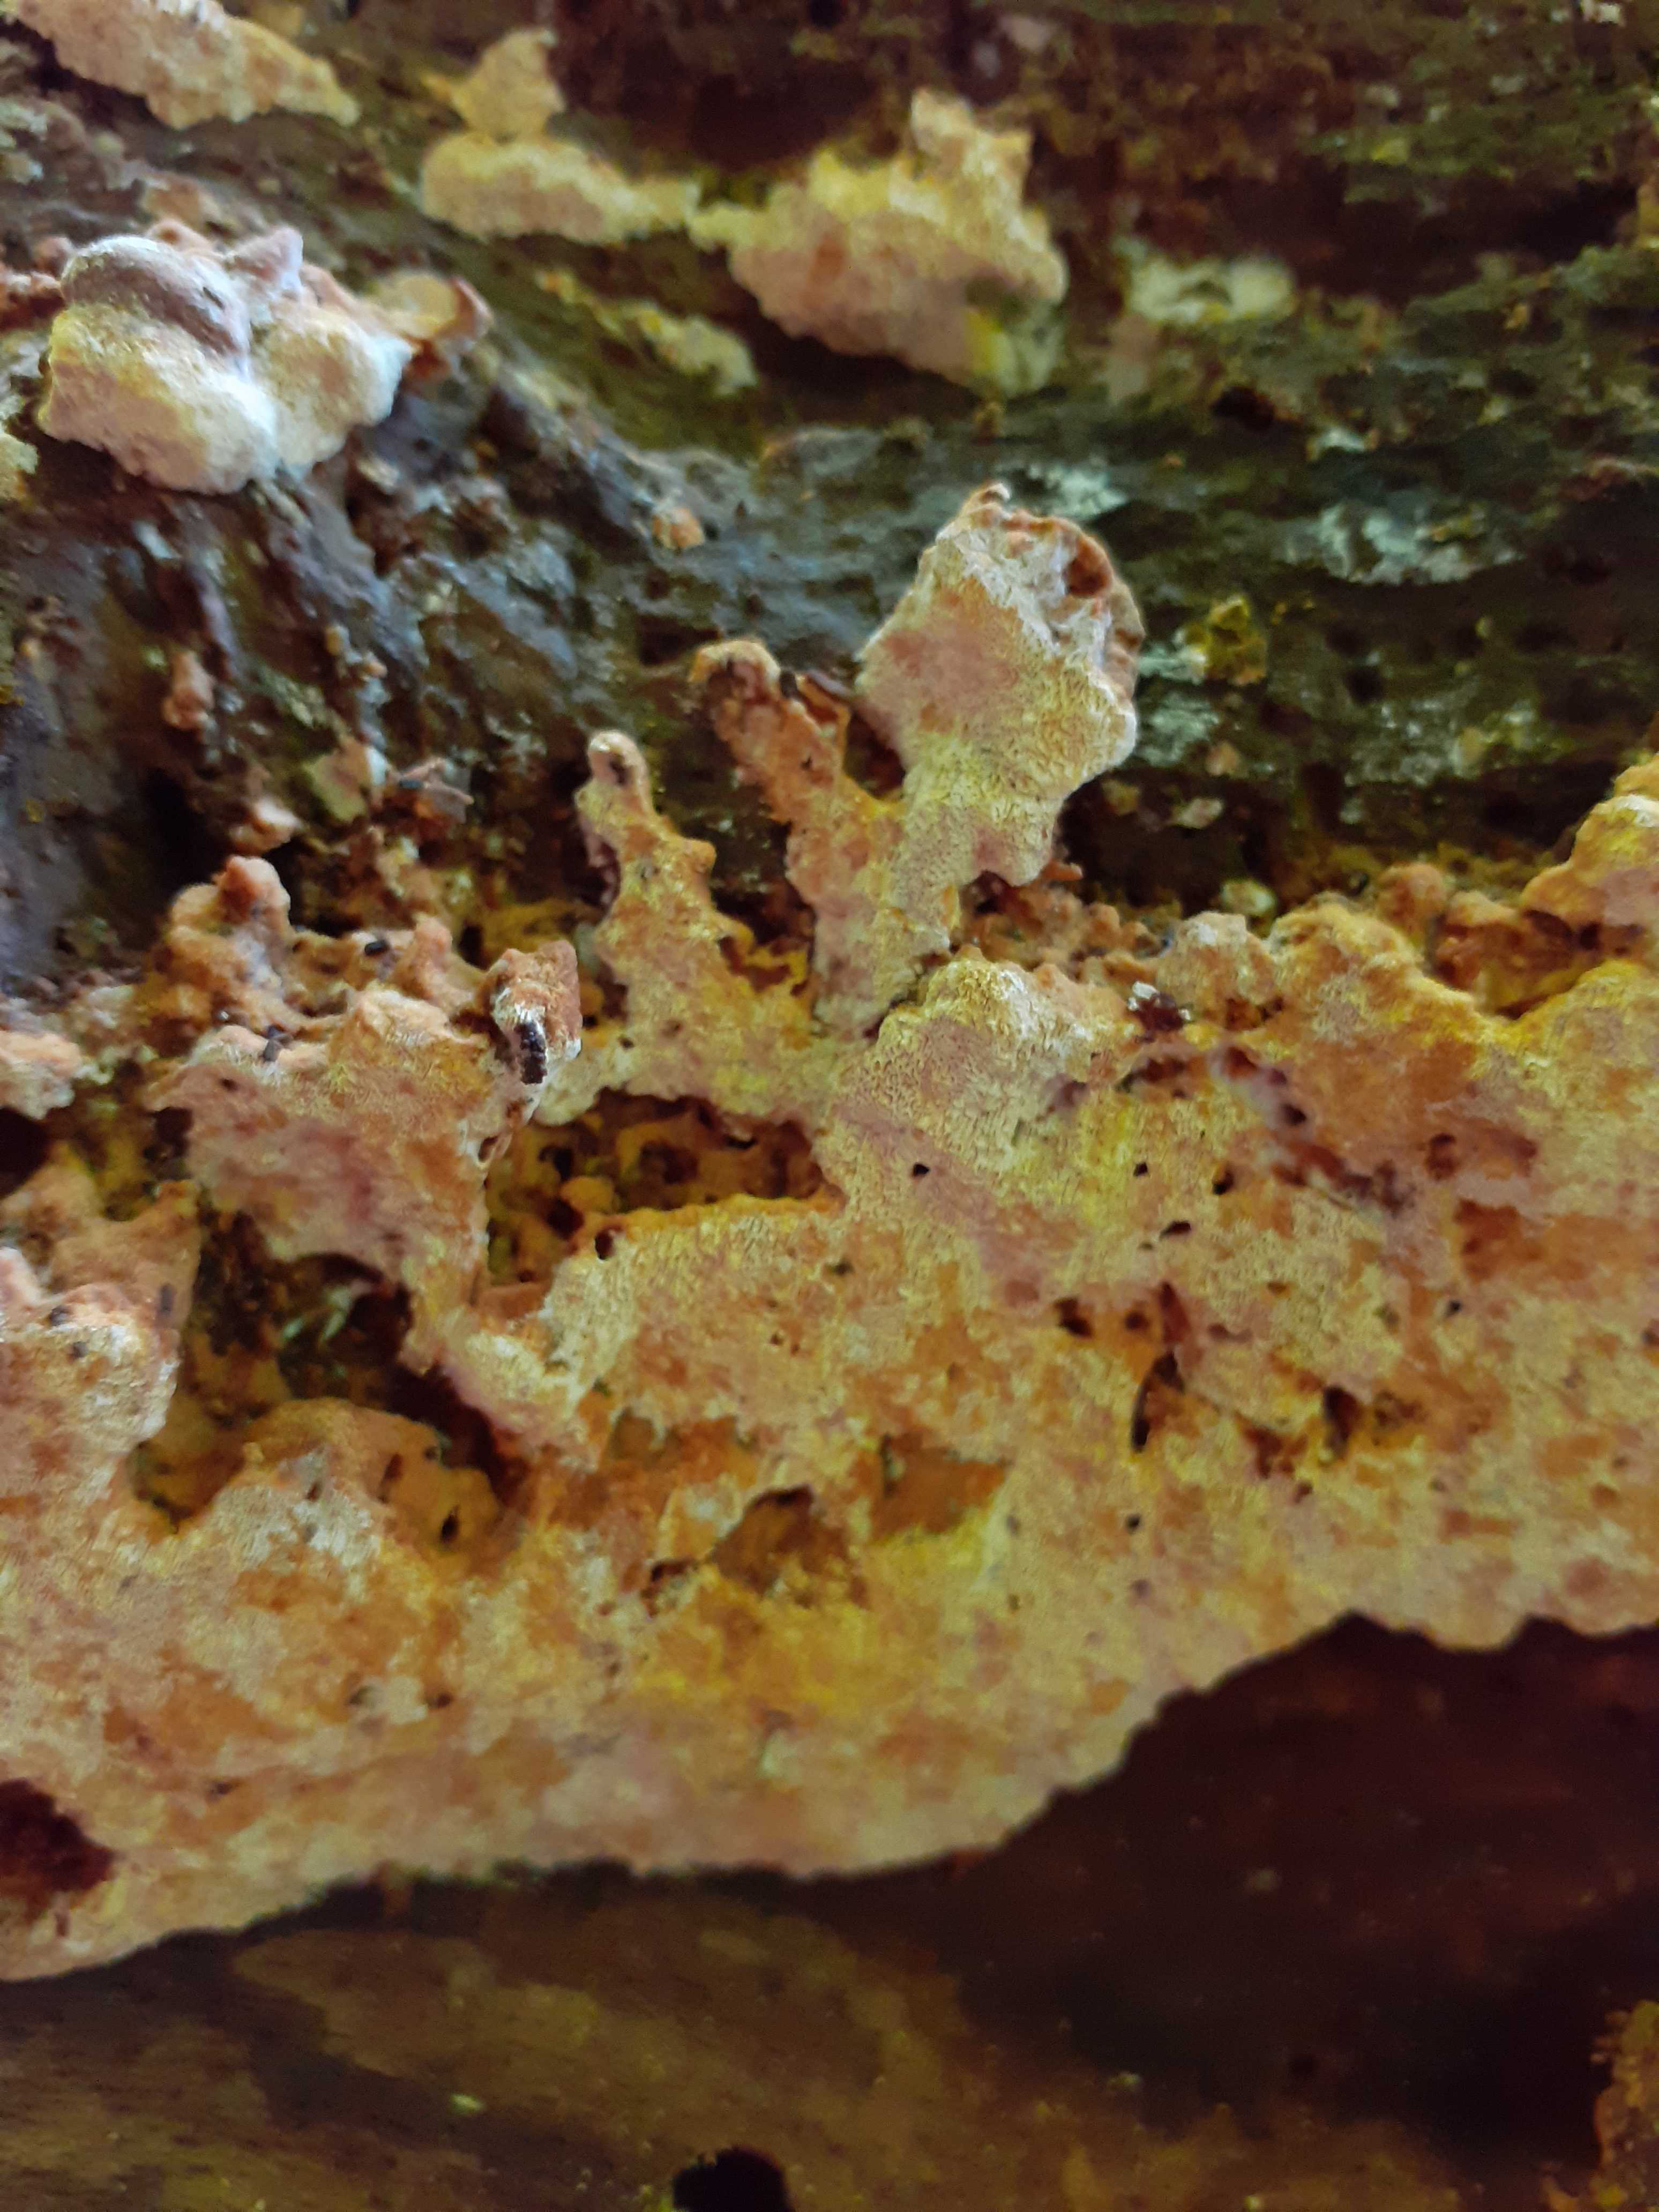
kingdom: Fungi
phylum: Basidiomycota
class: Agaricomycetes
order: Hymenochaetales
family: Hymenochaetaceae
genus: Mensularia
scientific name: Mensularia nodulosa
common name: bøge-spejlporesvamp
